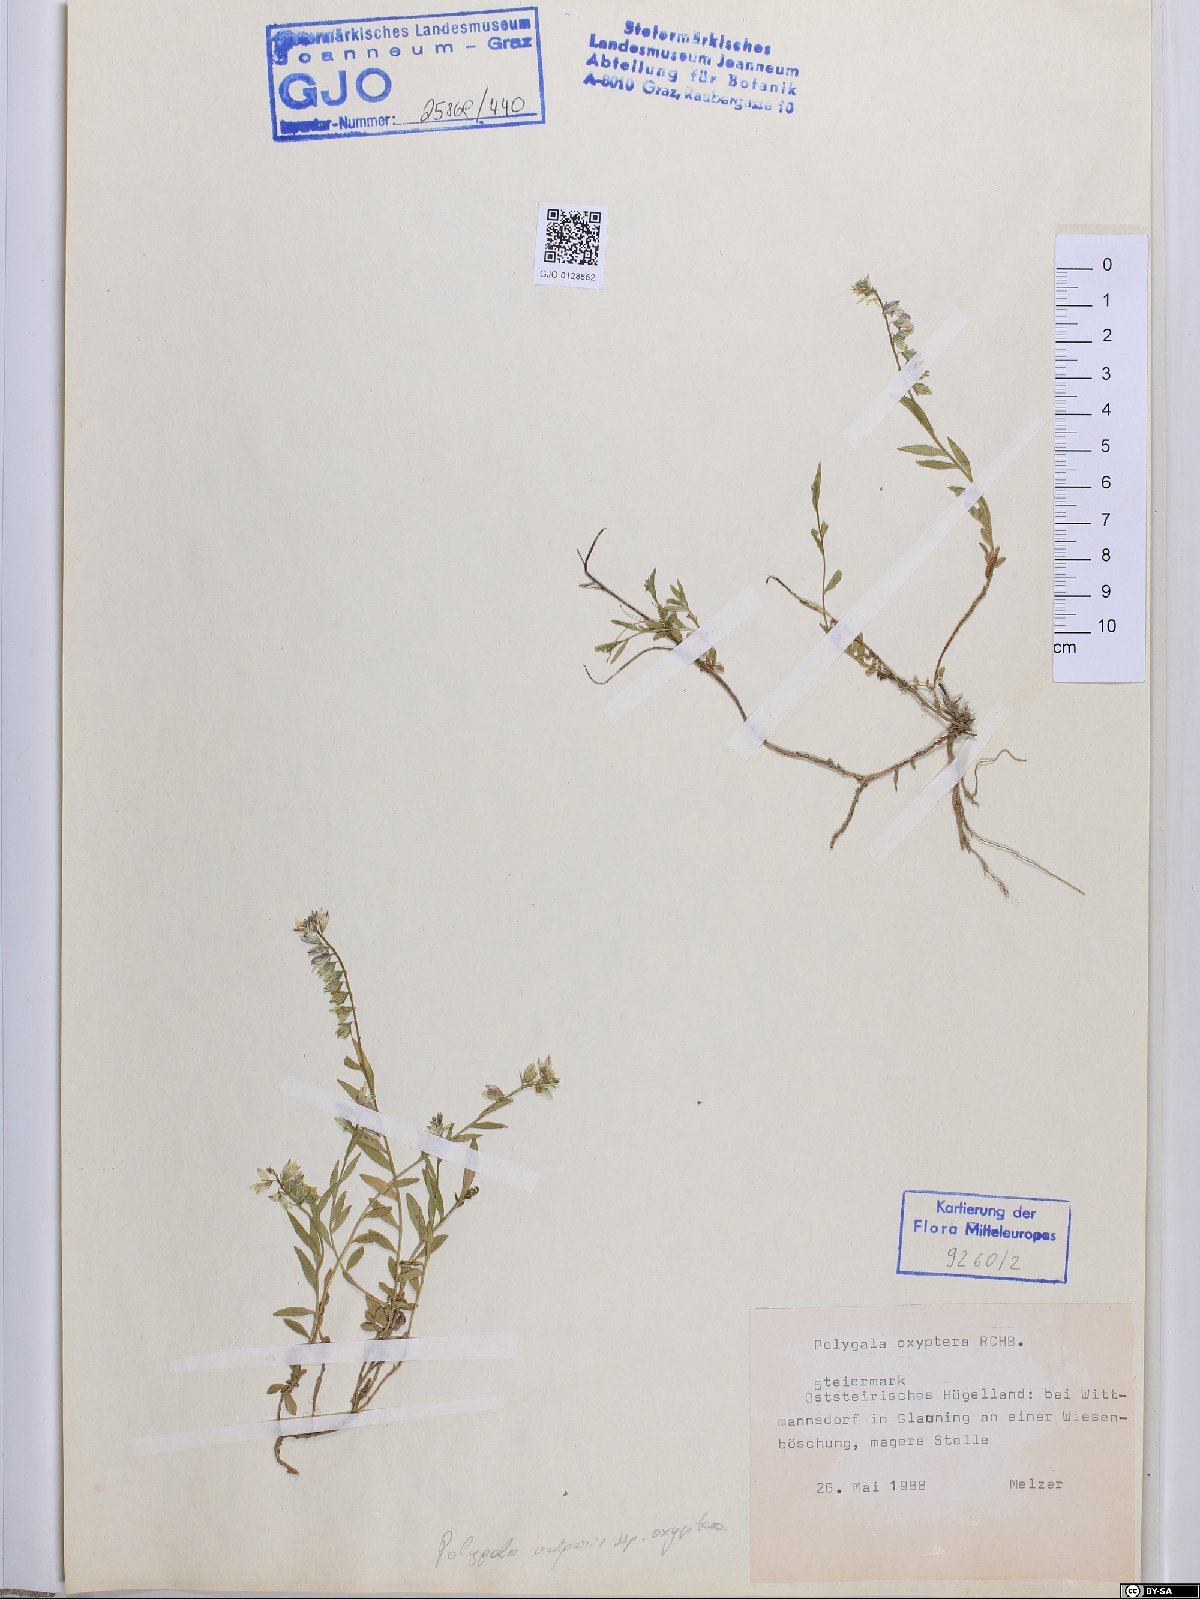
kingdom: Plantae
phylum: Tracheophyta
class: Magnoliopsida
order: Fabales
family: Polygalaceae
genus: Polygala
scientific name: Polygala vulgaris
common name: Common milkwort
